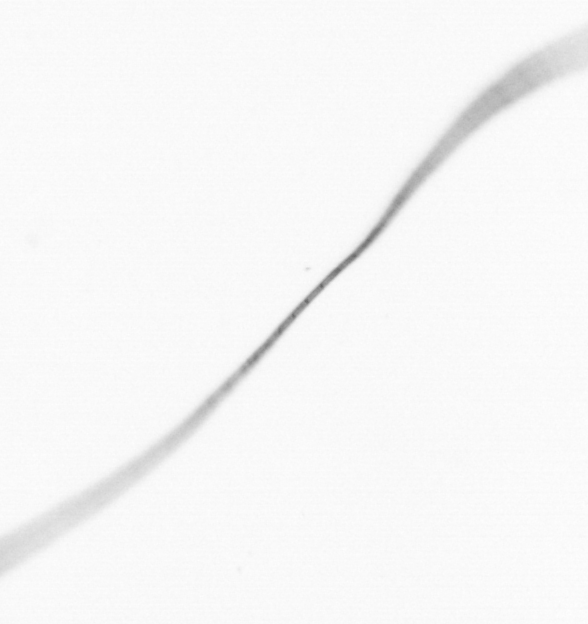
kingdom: Chromista
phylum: Ochrophyta
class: Bacillariophyceae
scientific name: Bacillariophyceae
